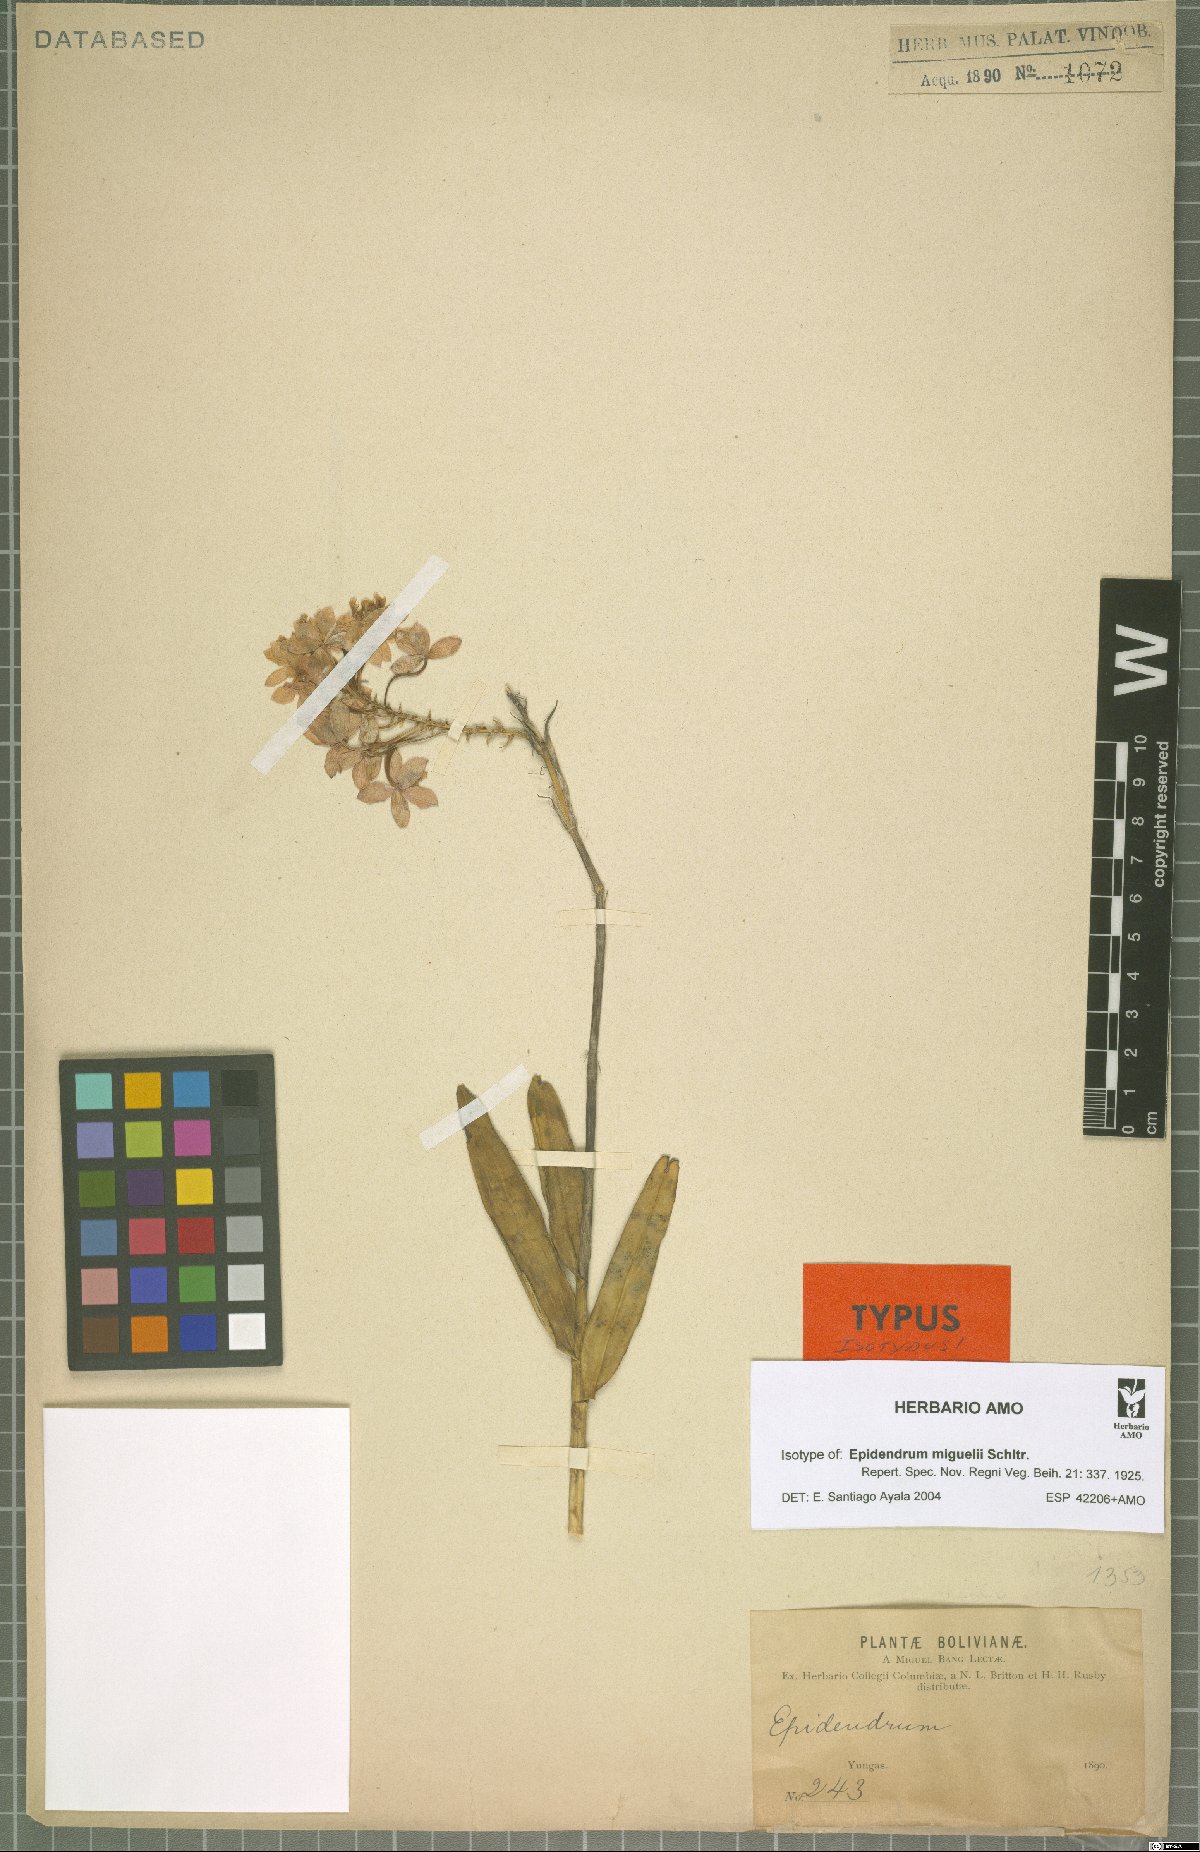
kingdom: Plantae
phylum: Tracheophyta
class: Liliopsida
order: Asparagales
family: Orchidaceae
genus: Epidendrum
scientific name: Epidendrum ibaguense
